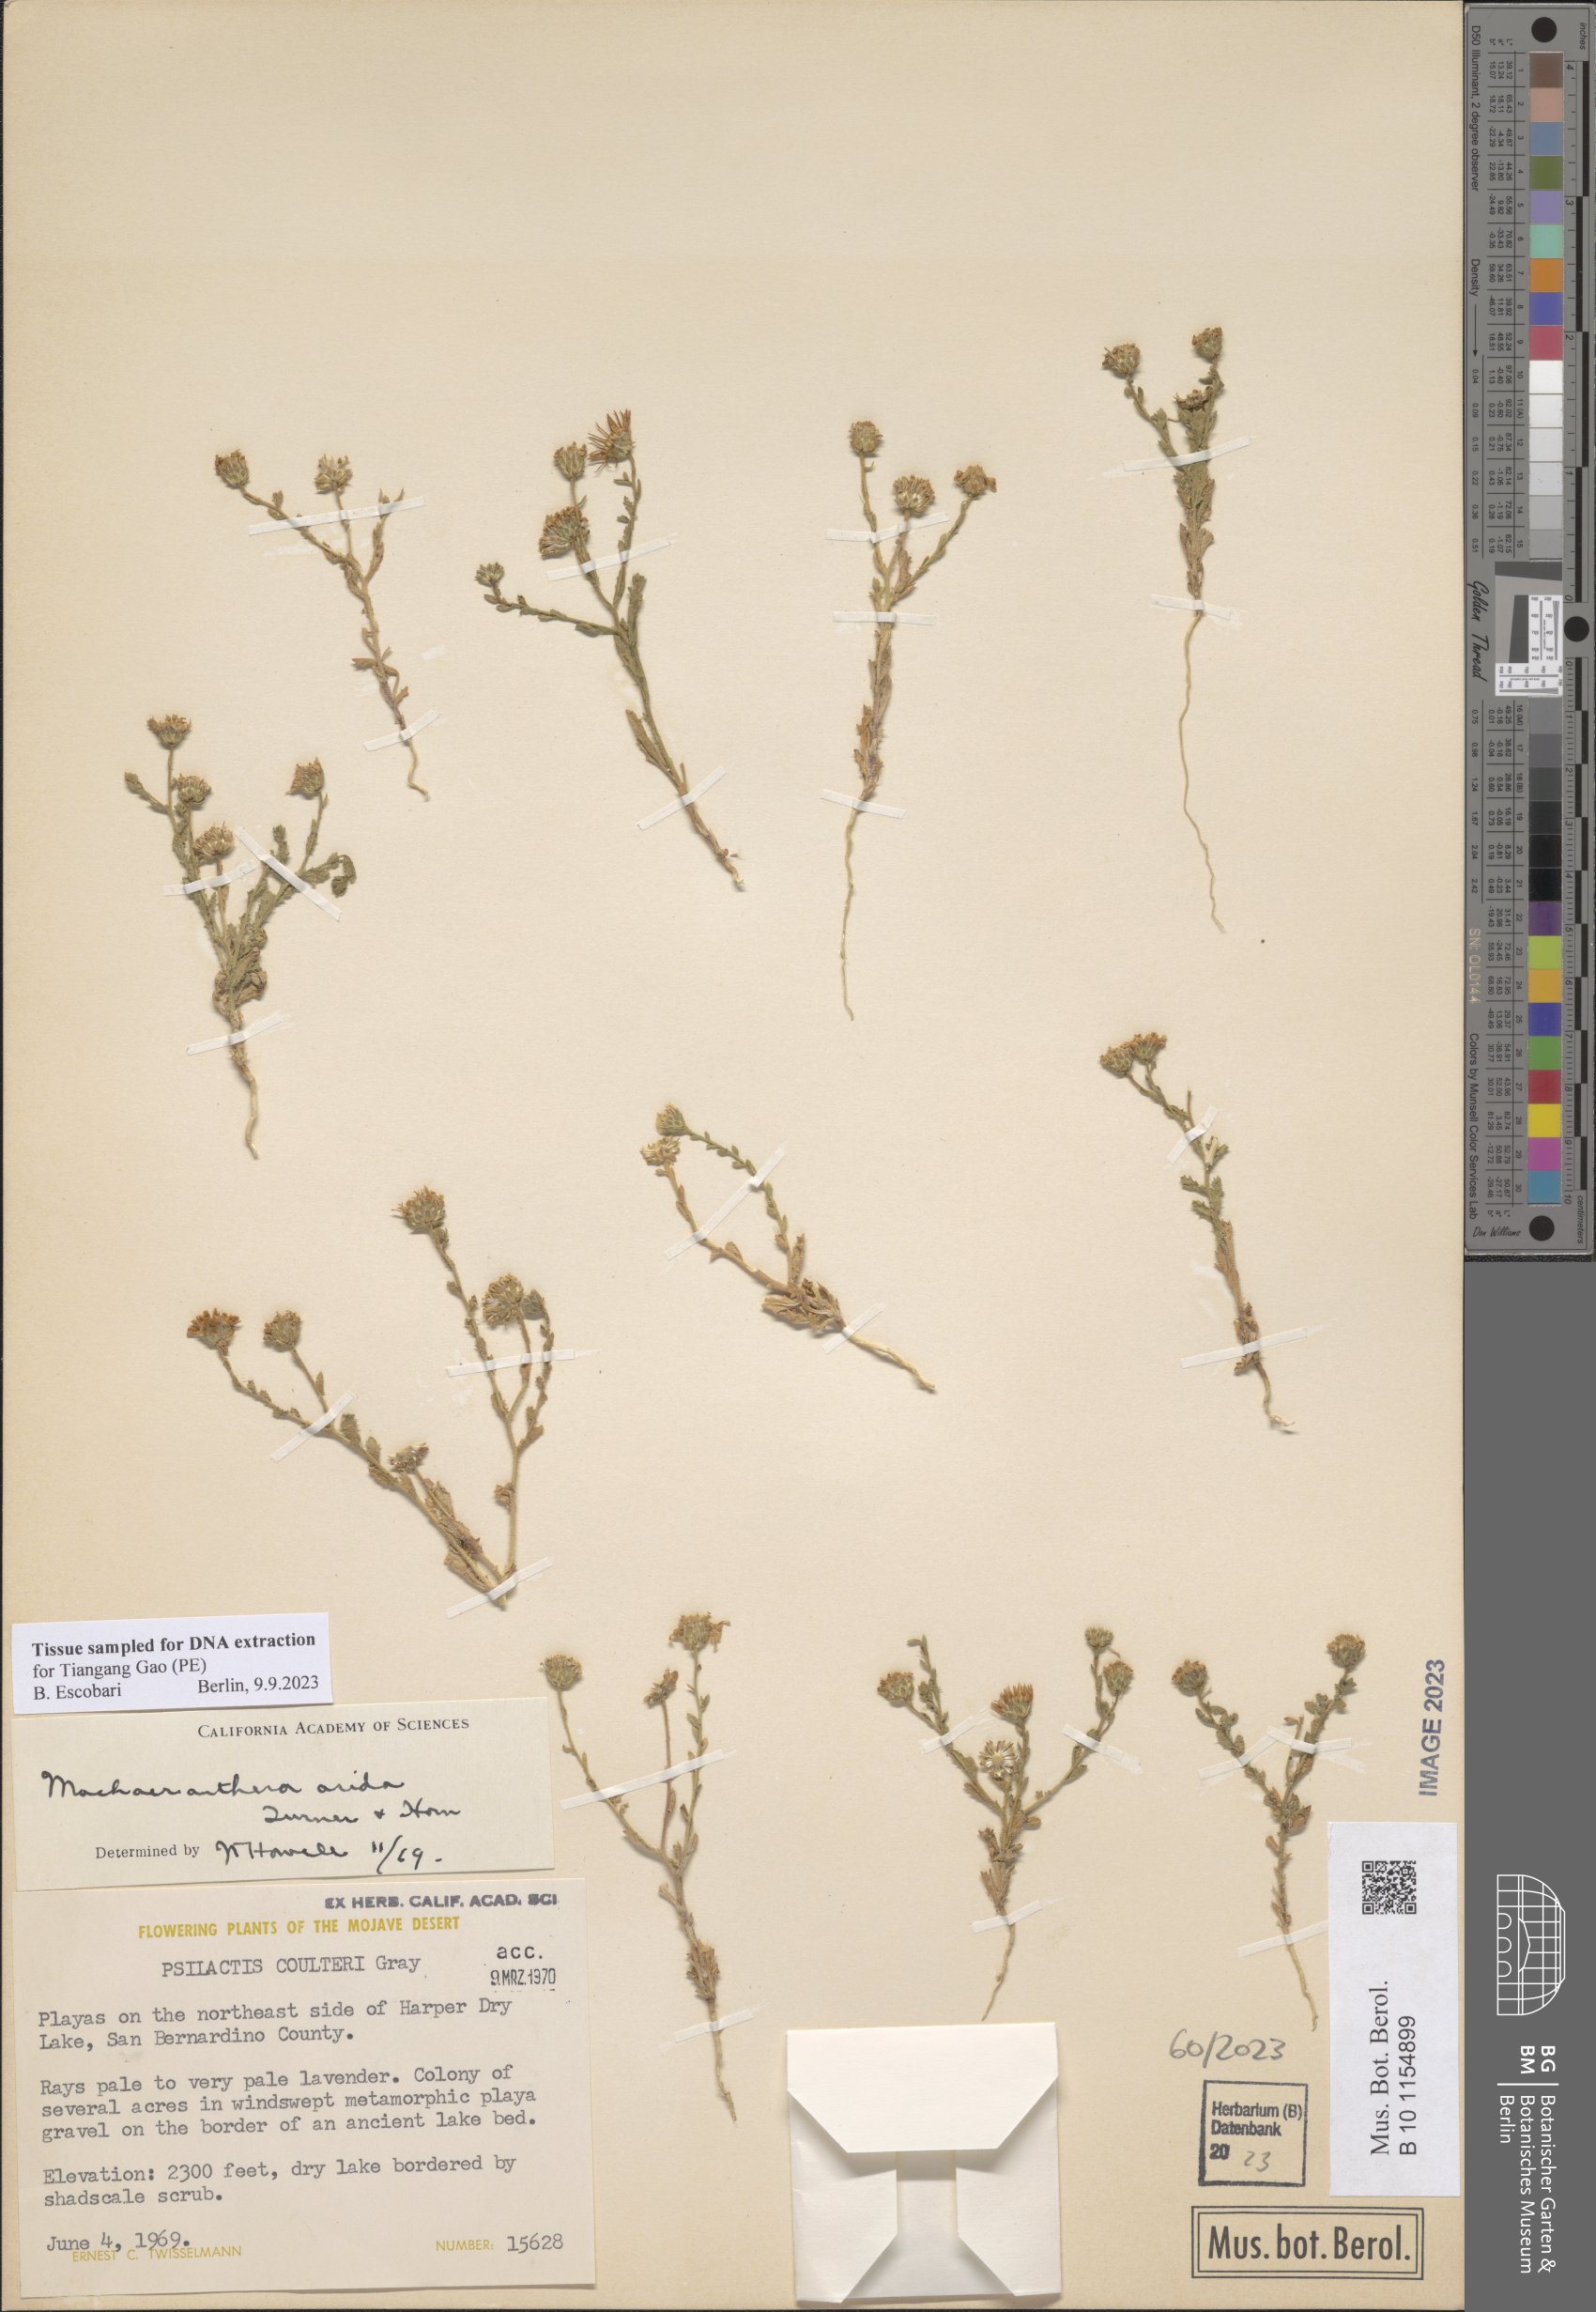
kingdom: Plantae
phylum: Tracheophyta
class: Magnoliopsida
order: Asterales
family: Asteraceae
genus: Leucosyris
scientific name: Leucosyris arida
